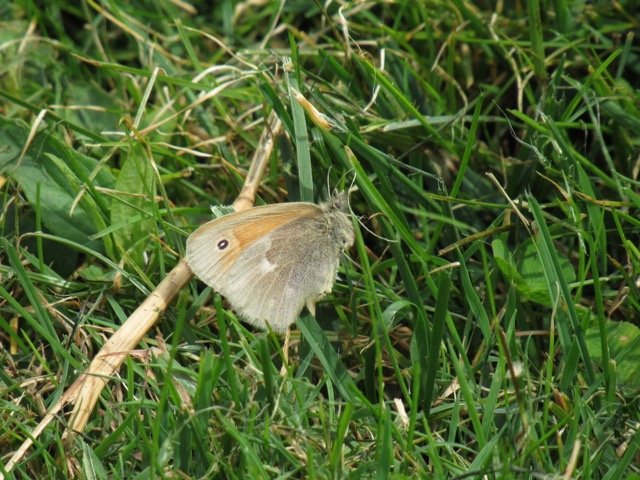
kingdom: Animalia
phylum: Arthropoda
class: Insecta
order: Lepidoptera
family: Nymphalidae
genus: Coenonympha
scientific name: Coenonympha tullia
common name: Large Heath
